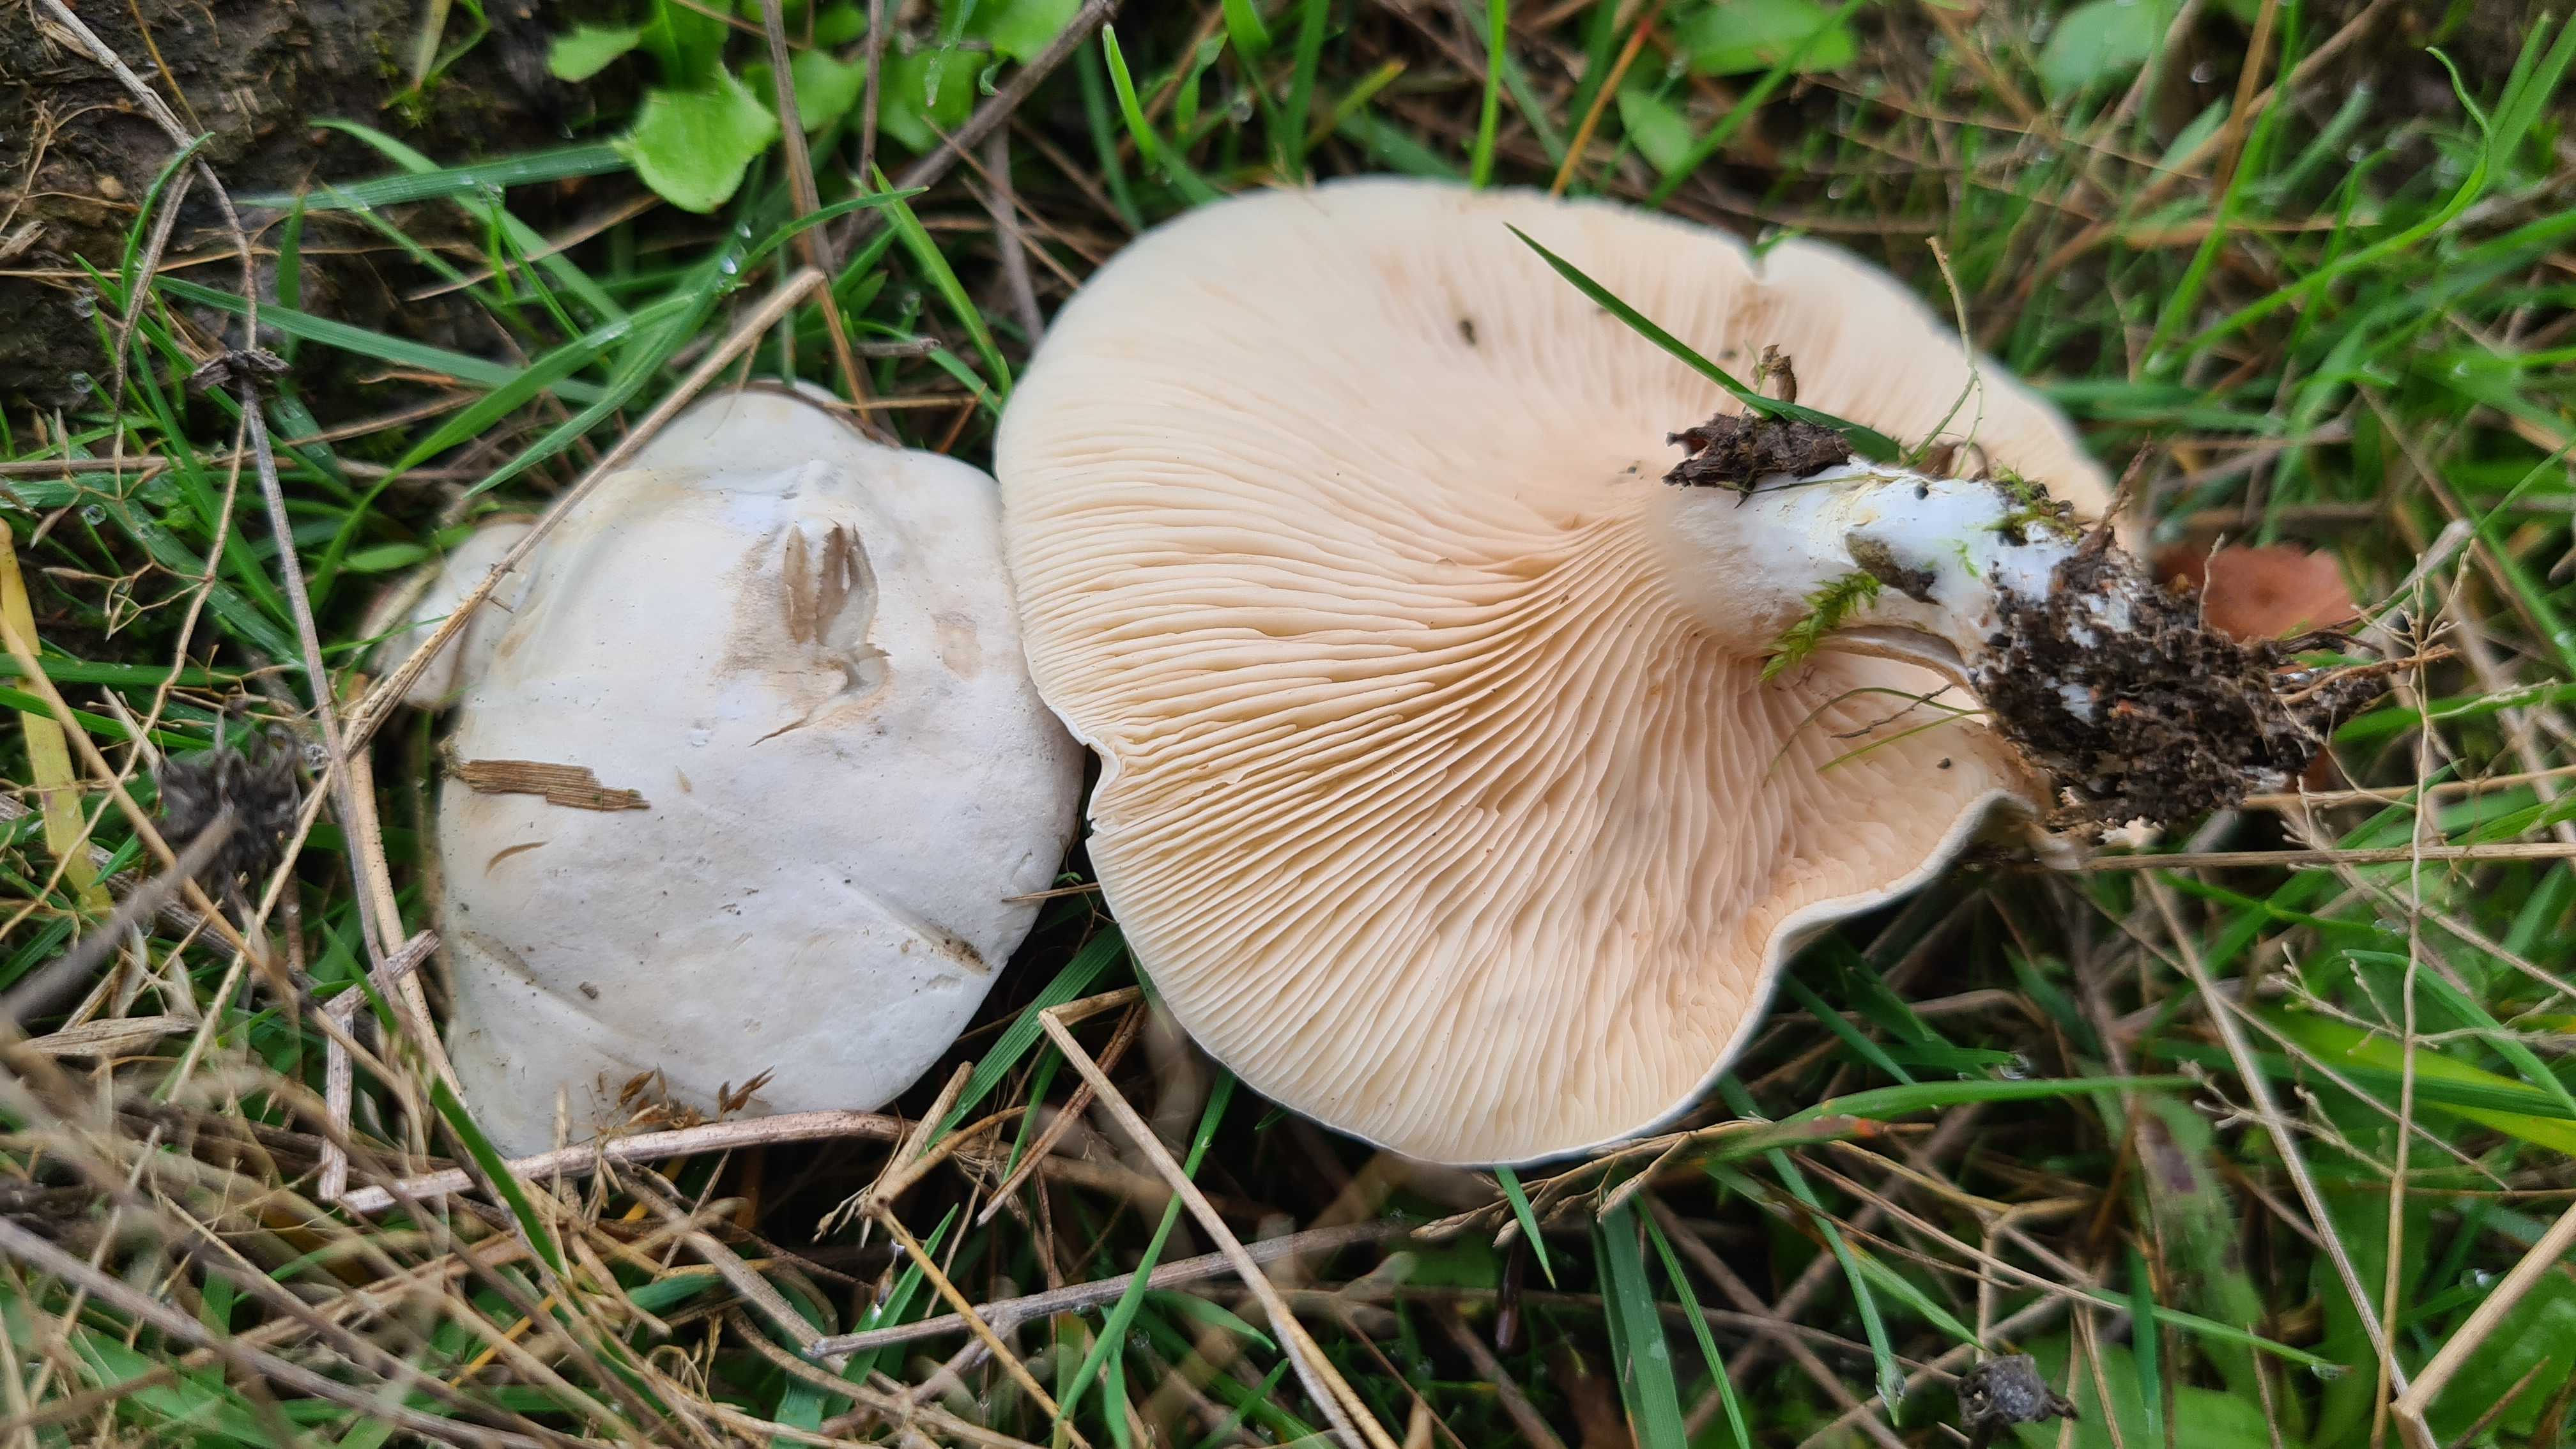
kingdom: Fungi
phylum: Basidiomycota
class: Agaricomycetes
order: Agaricales
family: Entolomataceae
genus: Clitopilus
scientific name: Clitopilus prunulus
